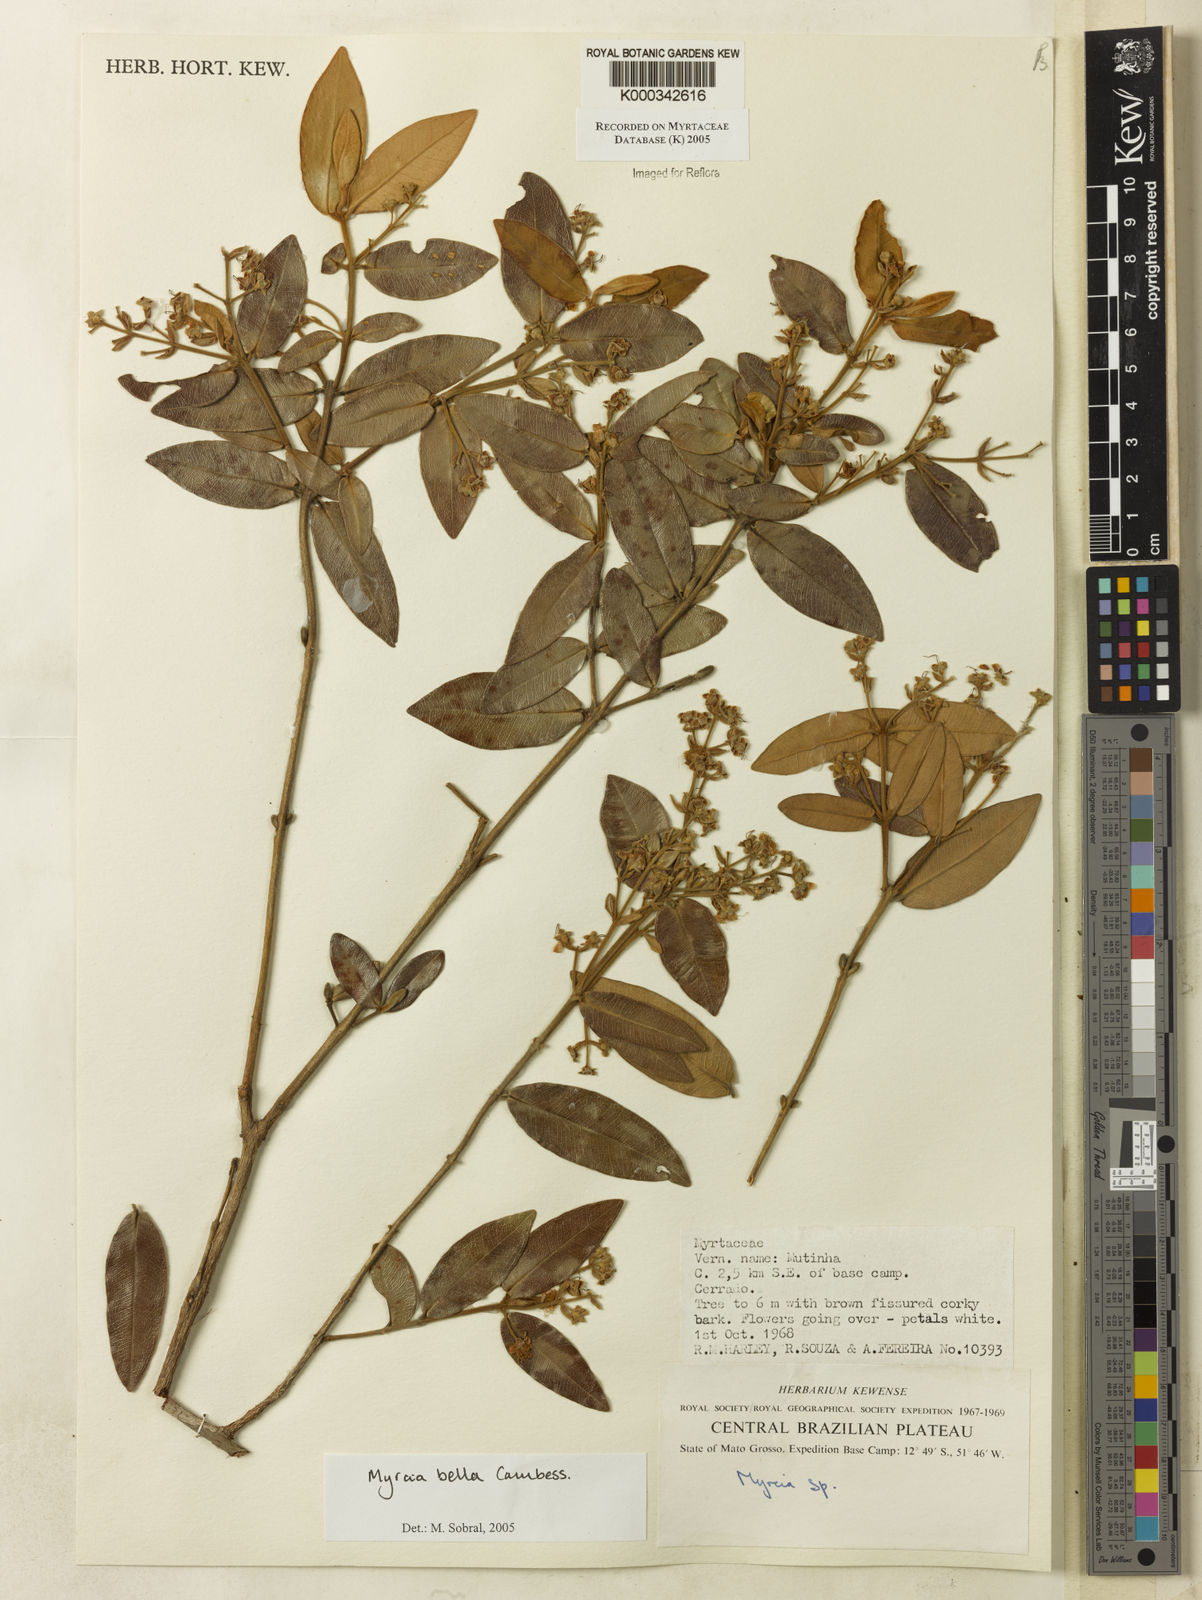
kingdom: Plantae
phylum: Tracheophyta
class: Magnoliopsida
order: Myrtales
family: Myrtaceae
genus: Myrcia
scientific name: Myrcia bella
